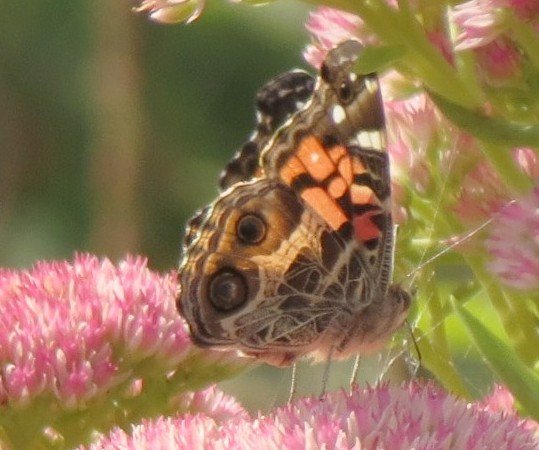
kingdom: Animalia
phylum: Arthropoda
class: Insecta
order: Lepidoptera
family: Nymphalidae
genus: Vanessa
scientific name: Vanessa virginiensis
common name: American Lady
